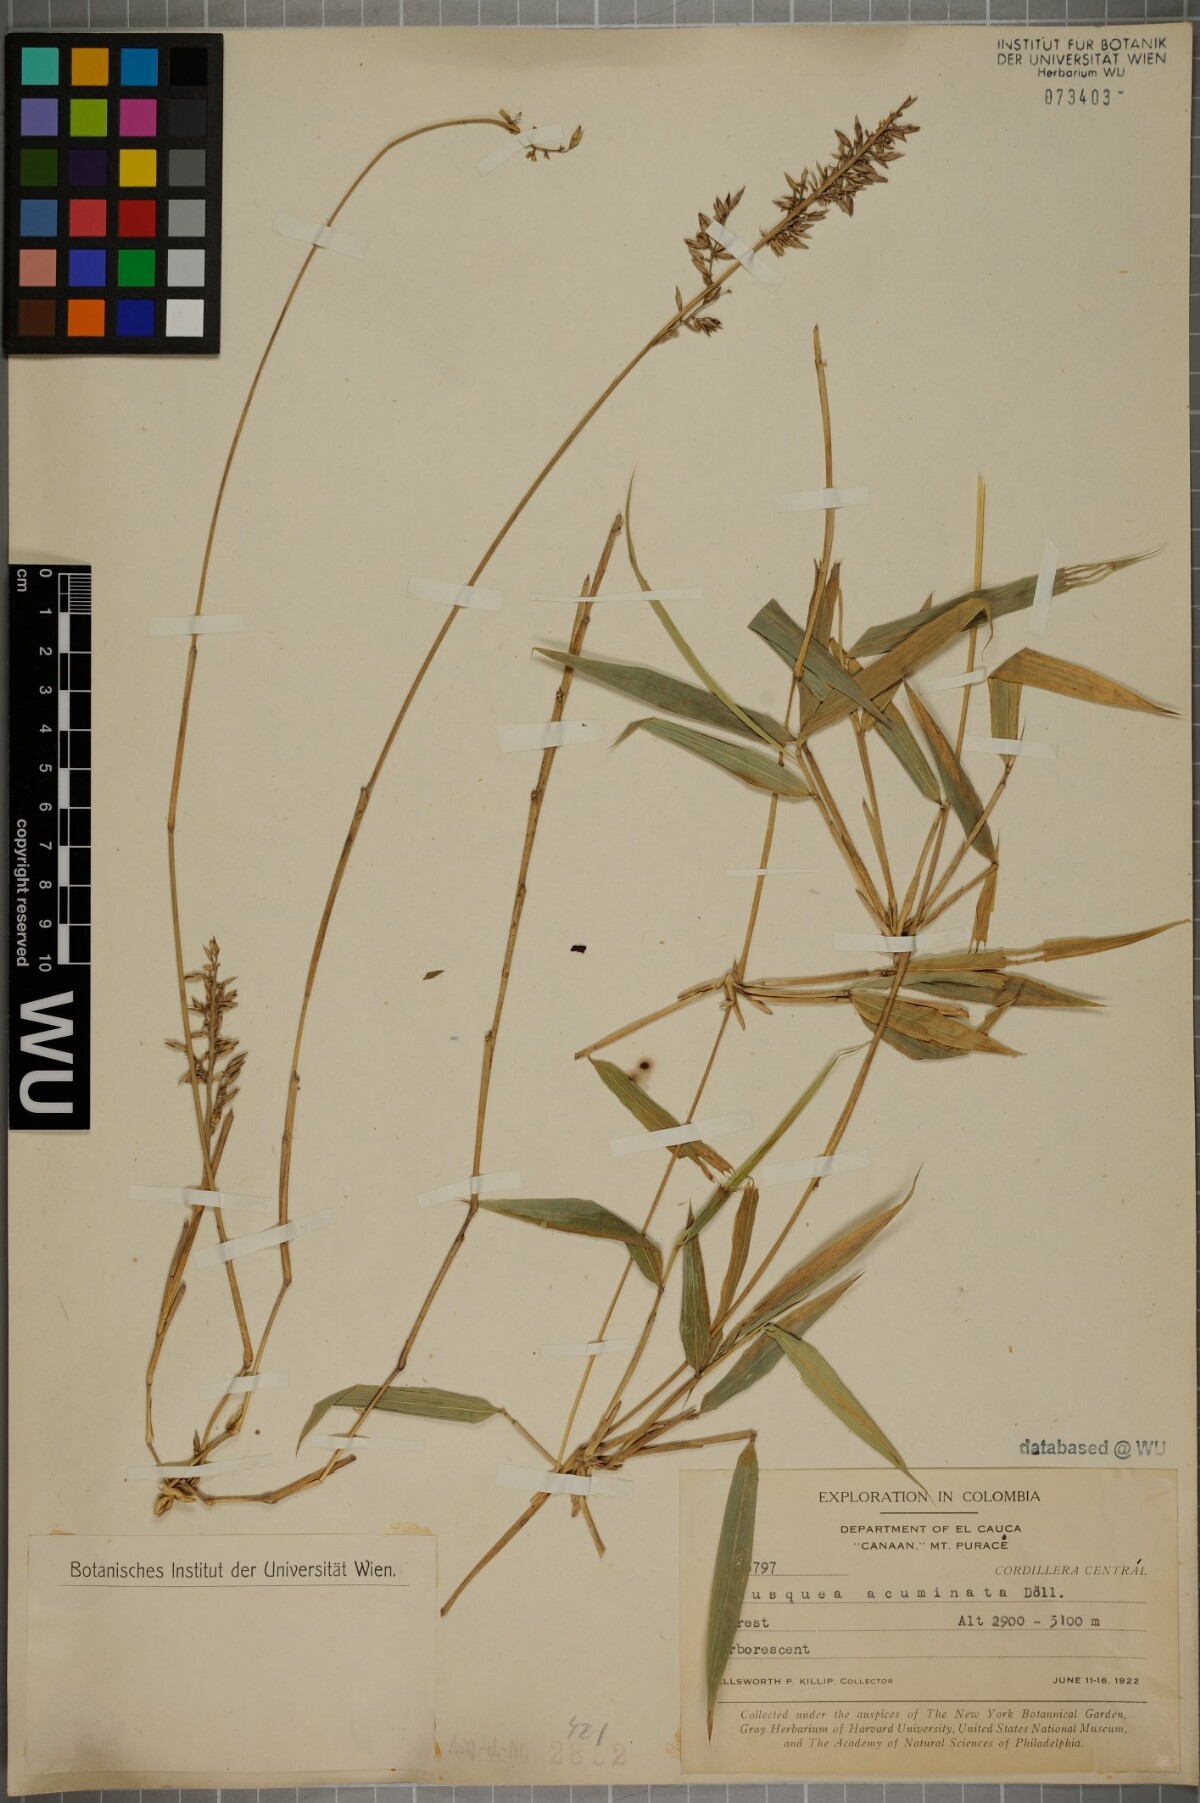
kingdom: Plantae
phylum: Tracheophyta
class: Liliopsida
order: Poales
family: Poaceae
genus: Chusquea
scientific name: Chusquea acuminata
